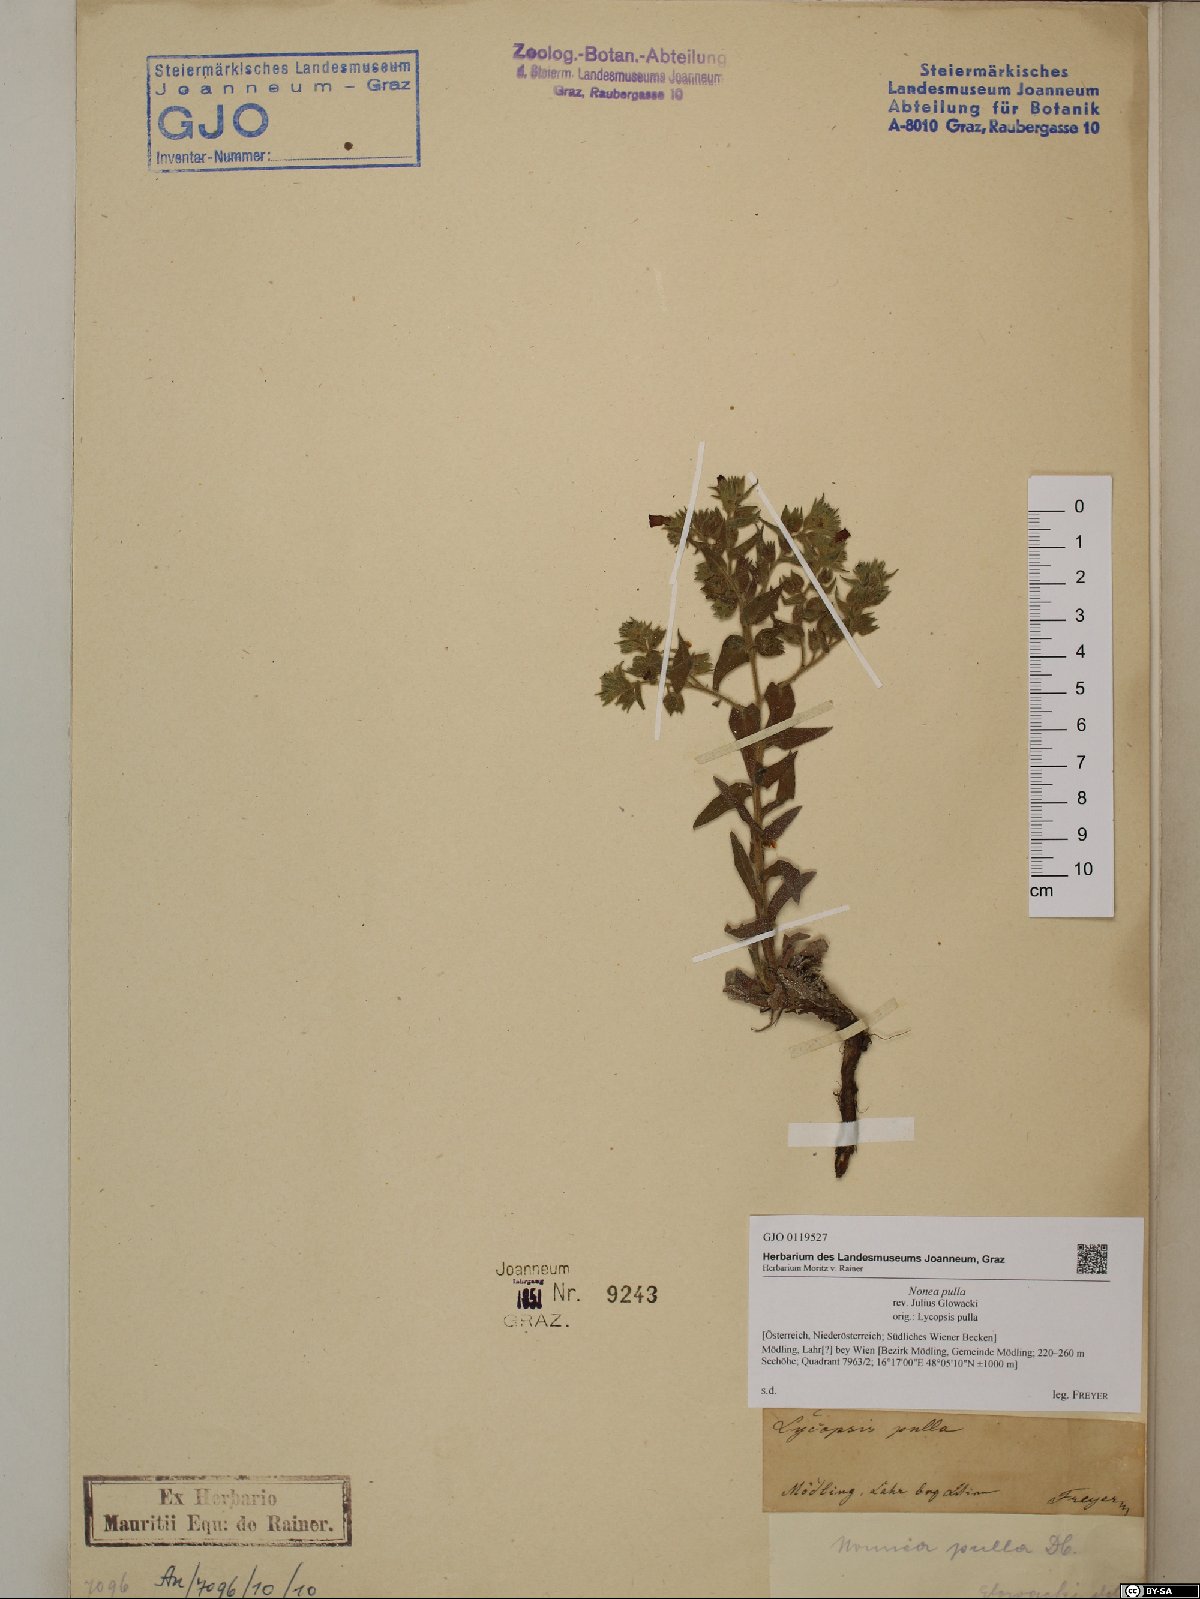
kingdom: Plantae
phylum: Tracheophyta
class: Magnoliopsida
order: Boraginales
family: Boraginaceae
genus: Nonea
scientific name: Nonea pulla
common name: Brown nonea
